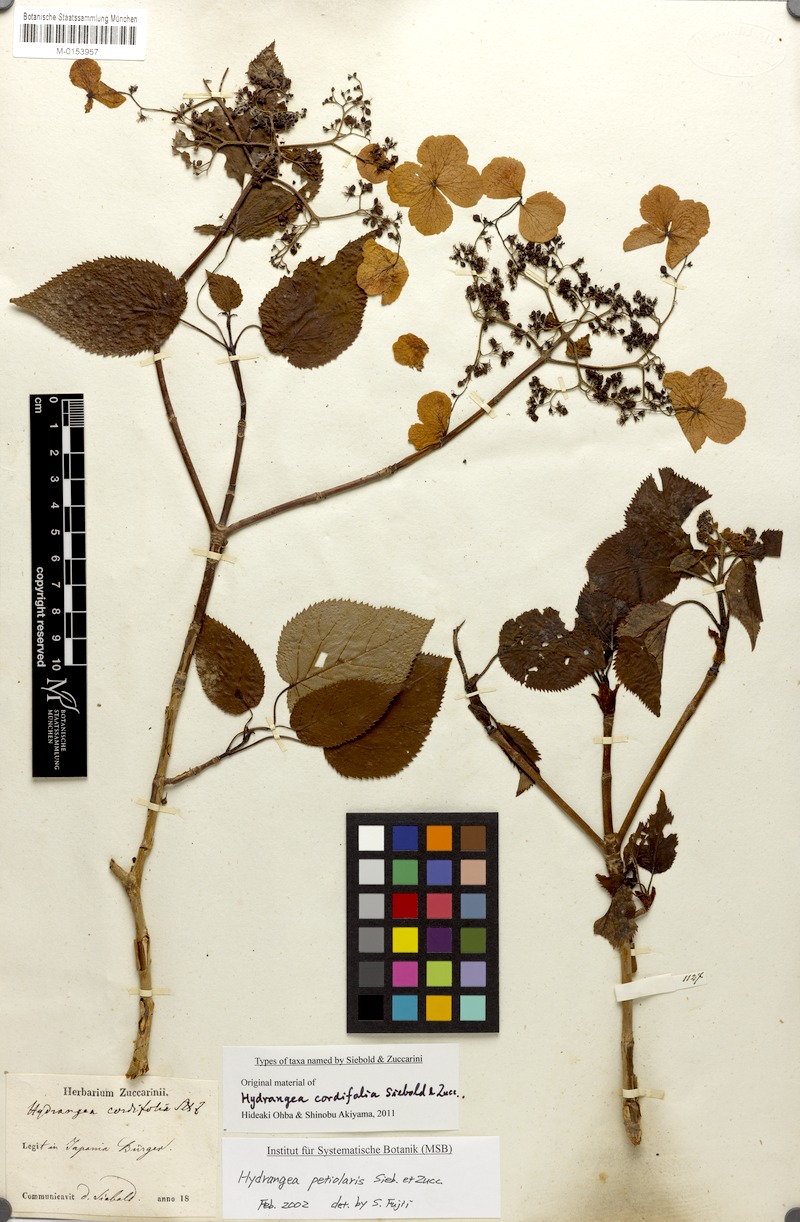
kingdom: Plantae
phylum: Tracheophyta
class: Magnoliopsida
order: Cornales
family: Hydrangeaceae
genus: Hydrangea
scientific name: Hydrangea petiolaris
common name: Japanese climbing hydrangea
